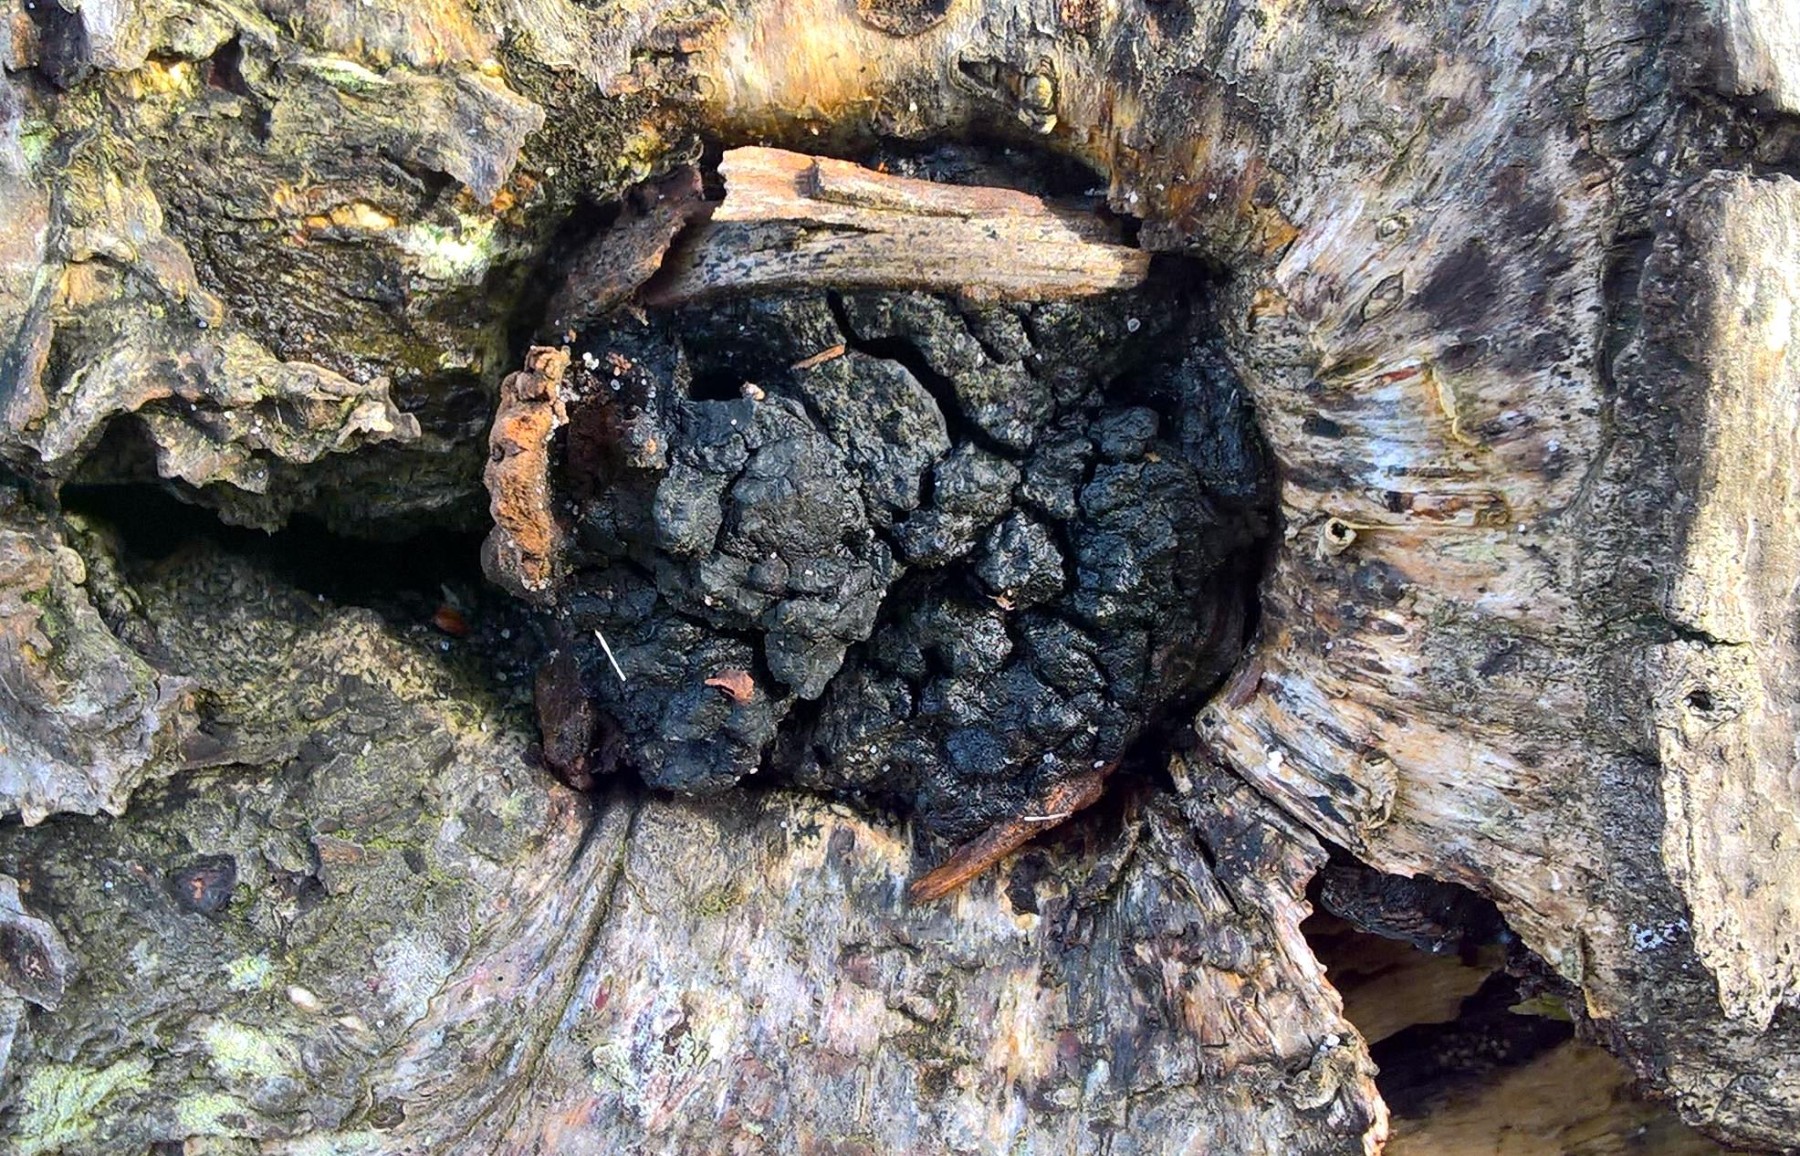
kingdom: Fungi
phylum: Basidiomycota
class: Agaricomycetes
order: Hymenochaetales
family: Hymenochaetaceae
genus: Inonotus
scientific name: Inonotus obliquus
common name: birke-spejlporesvamp
